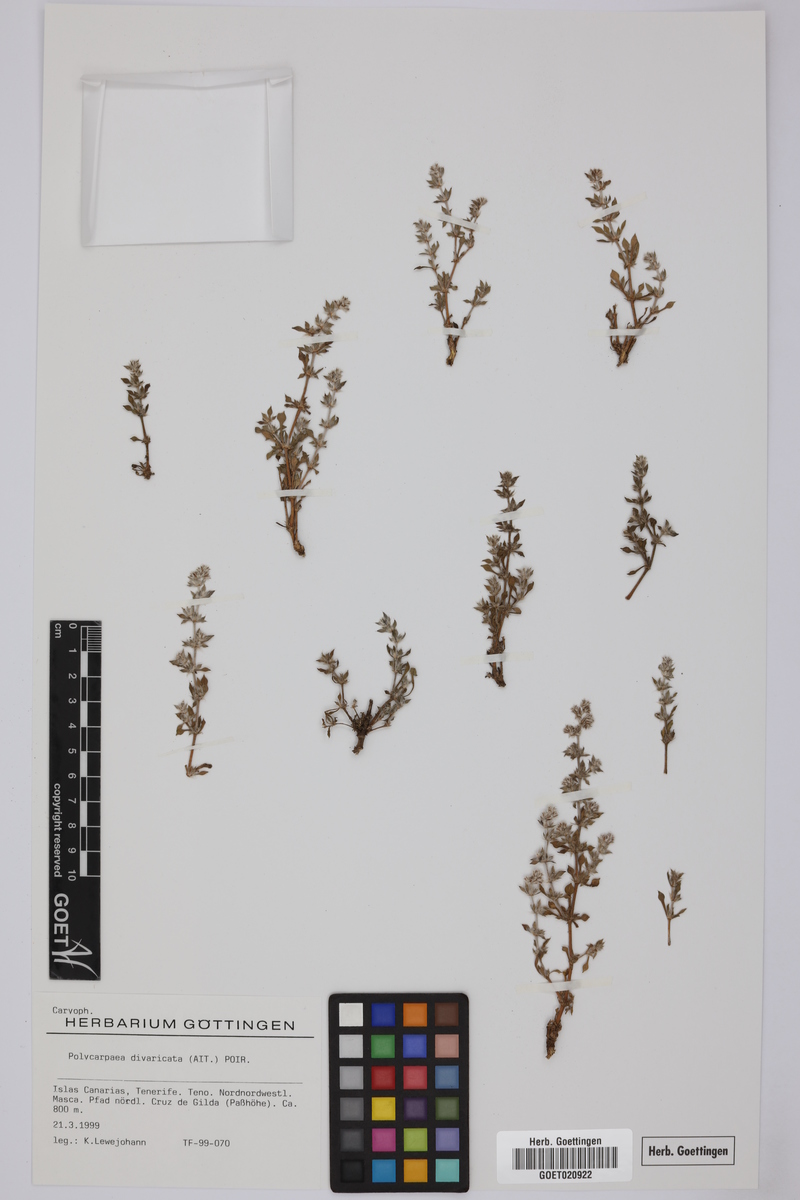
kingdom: Plantae
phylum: Tracheophyta
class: Magnoliopsida
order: Caryophyllales
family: Caryophyllaceae
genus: Polycarpaea
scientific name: Polycarpaea divaricata
